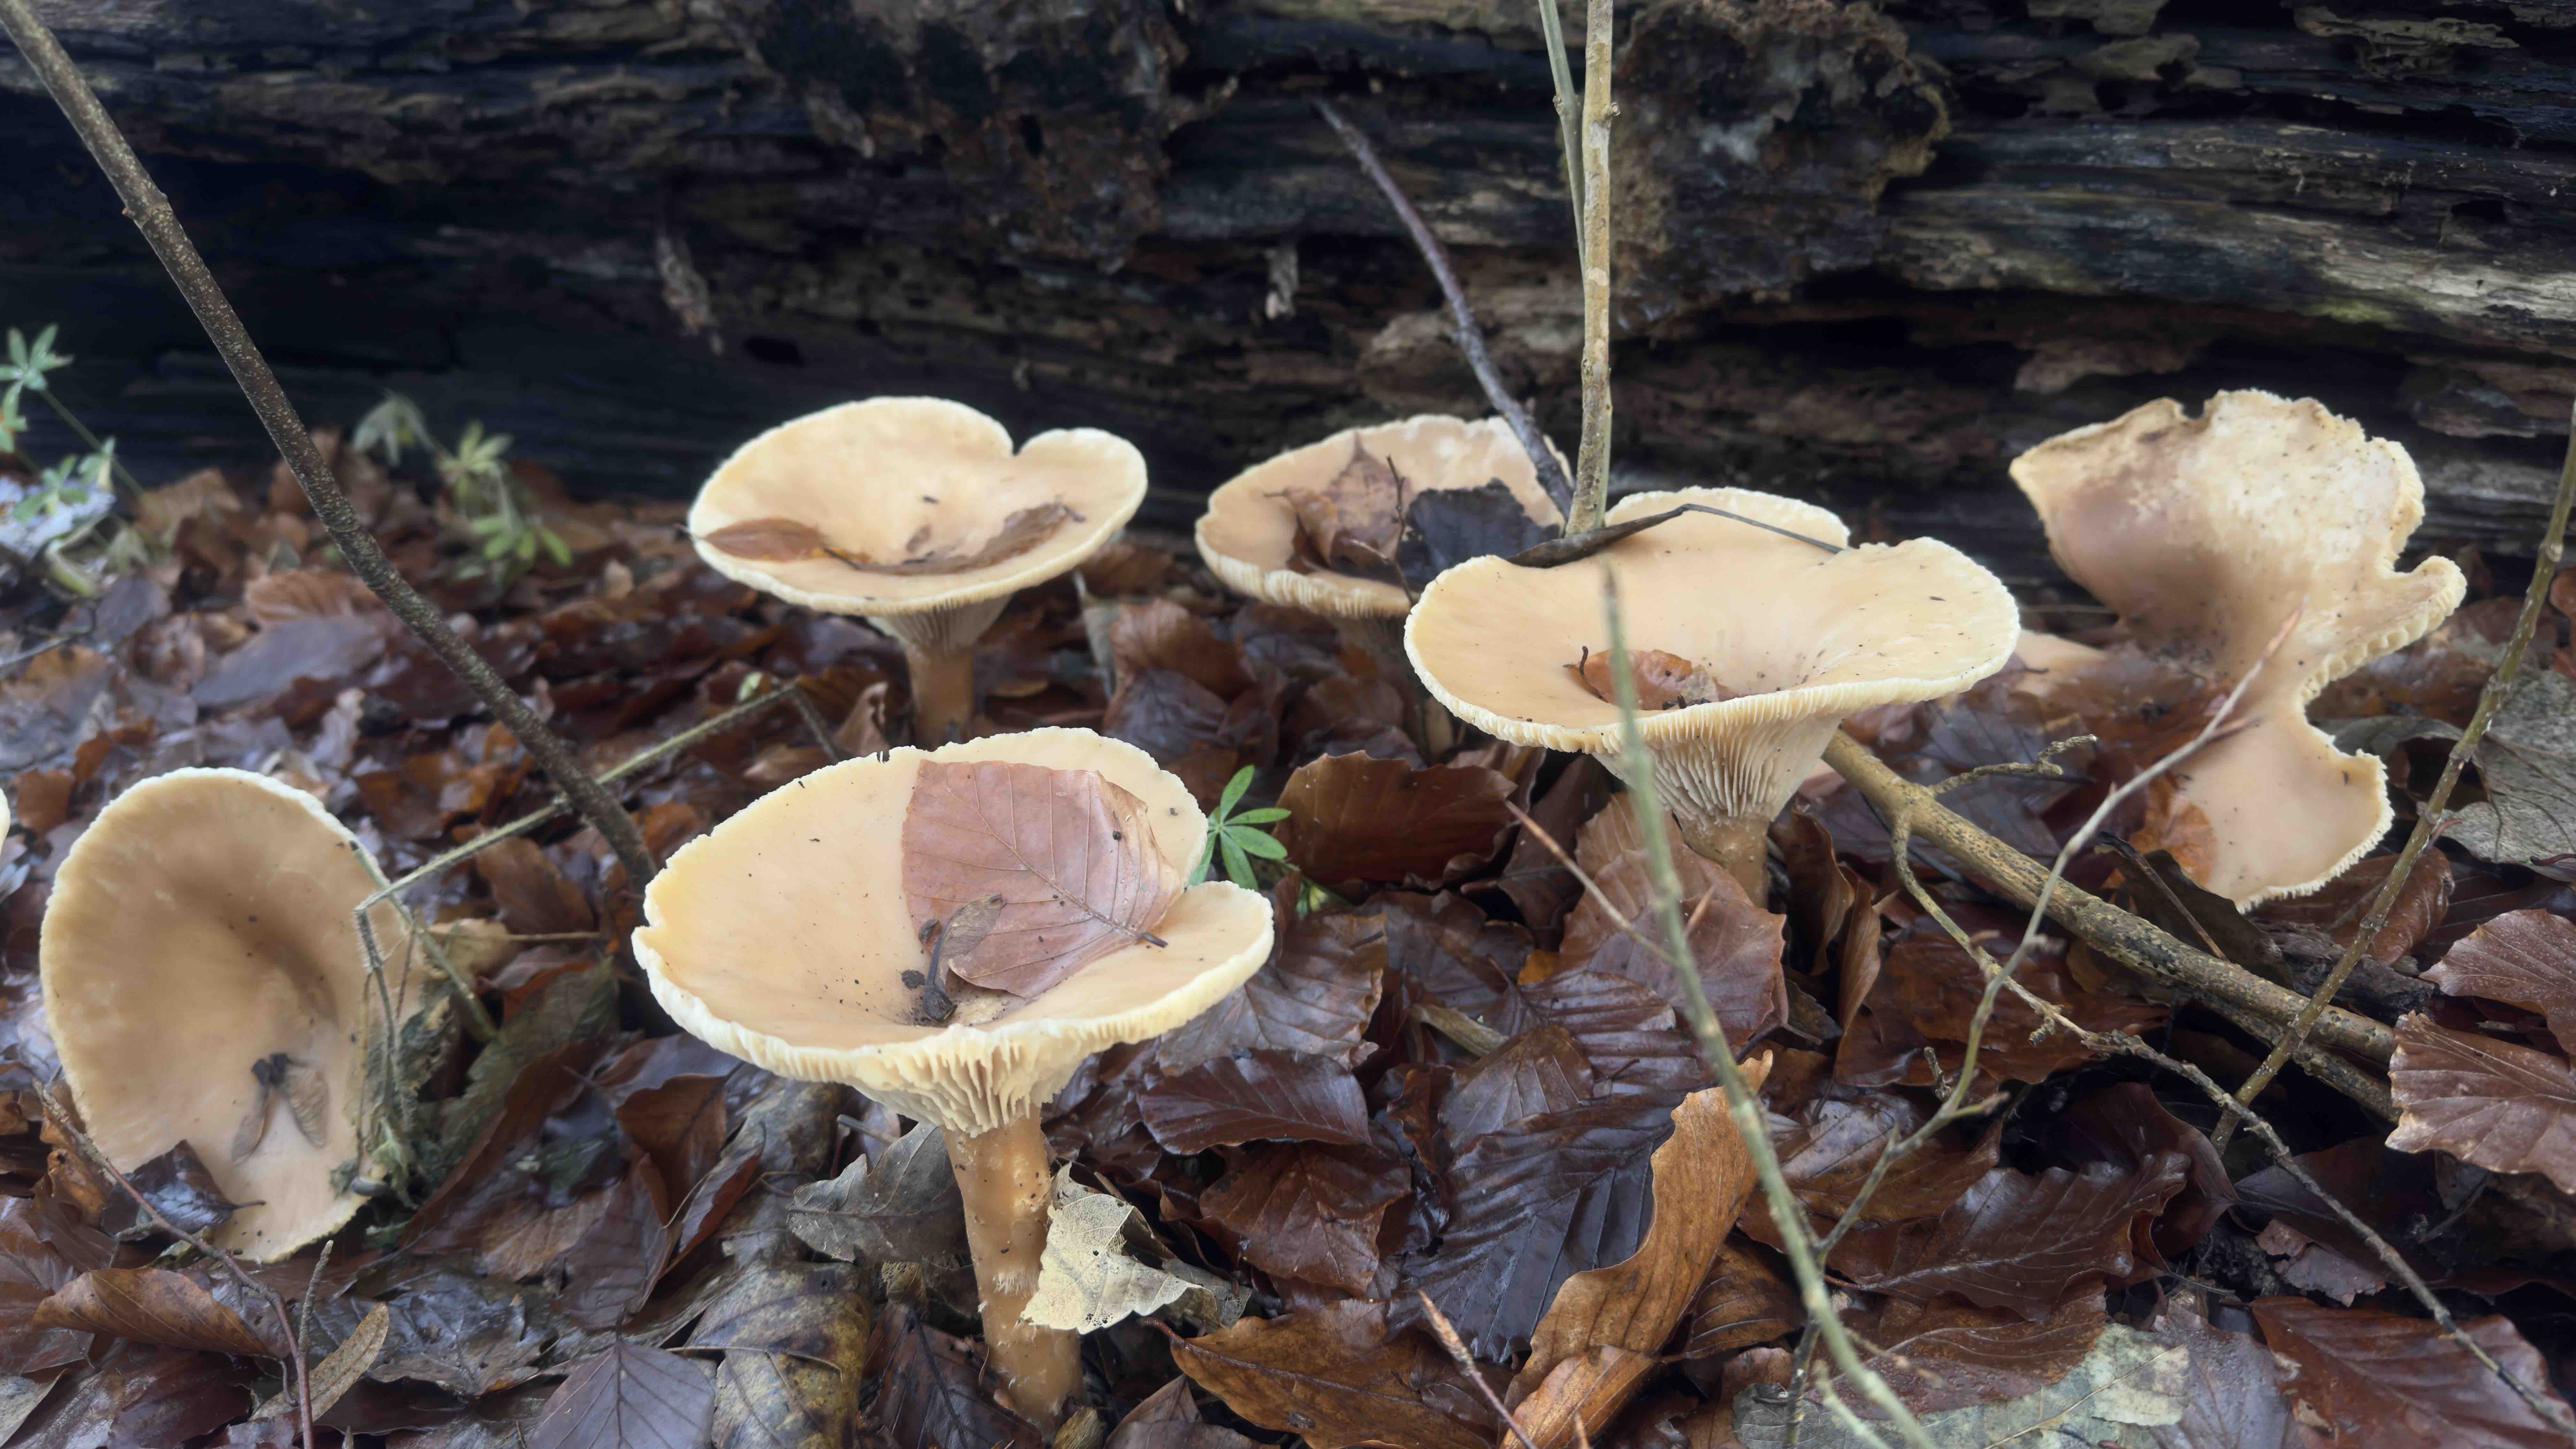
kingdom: Fungi
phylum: Basidiomycota
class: Agaricomycetes
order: Agaricales
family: Tricholomataceae
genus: Infundibulicybe
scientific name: Infundibulicybe geotropa
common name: stor tragthat
